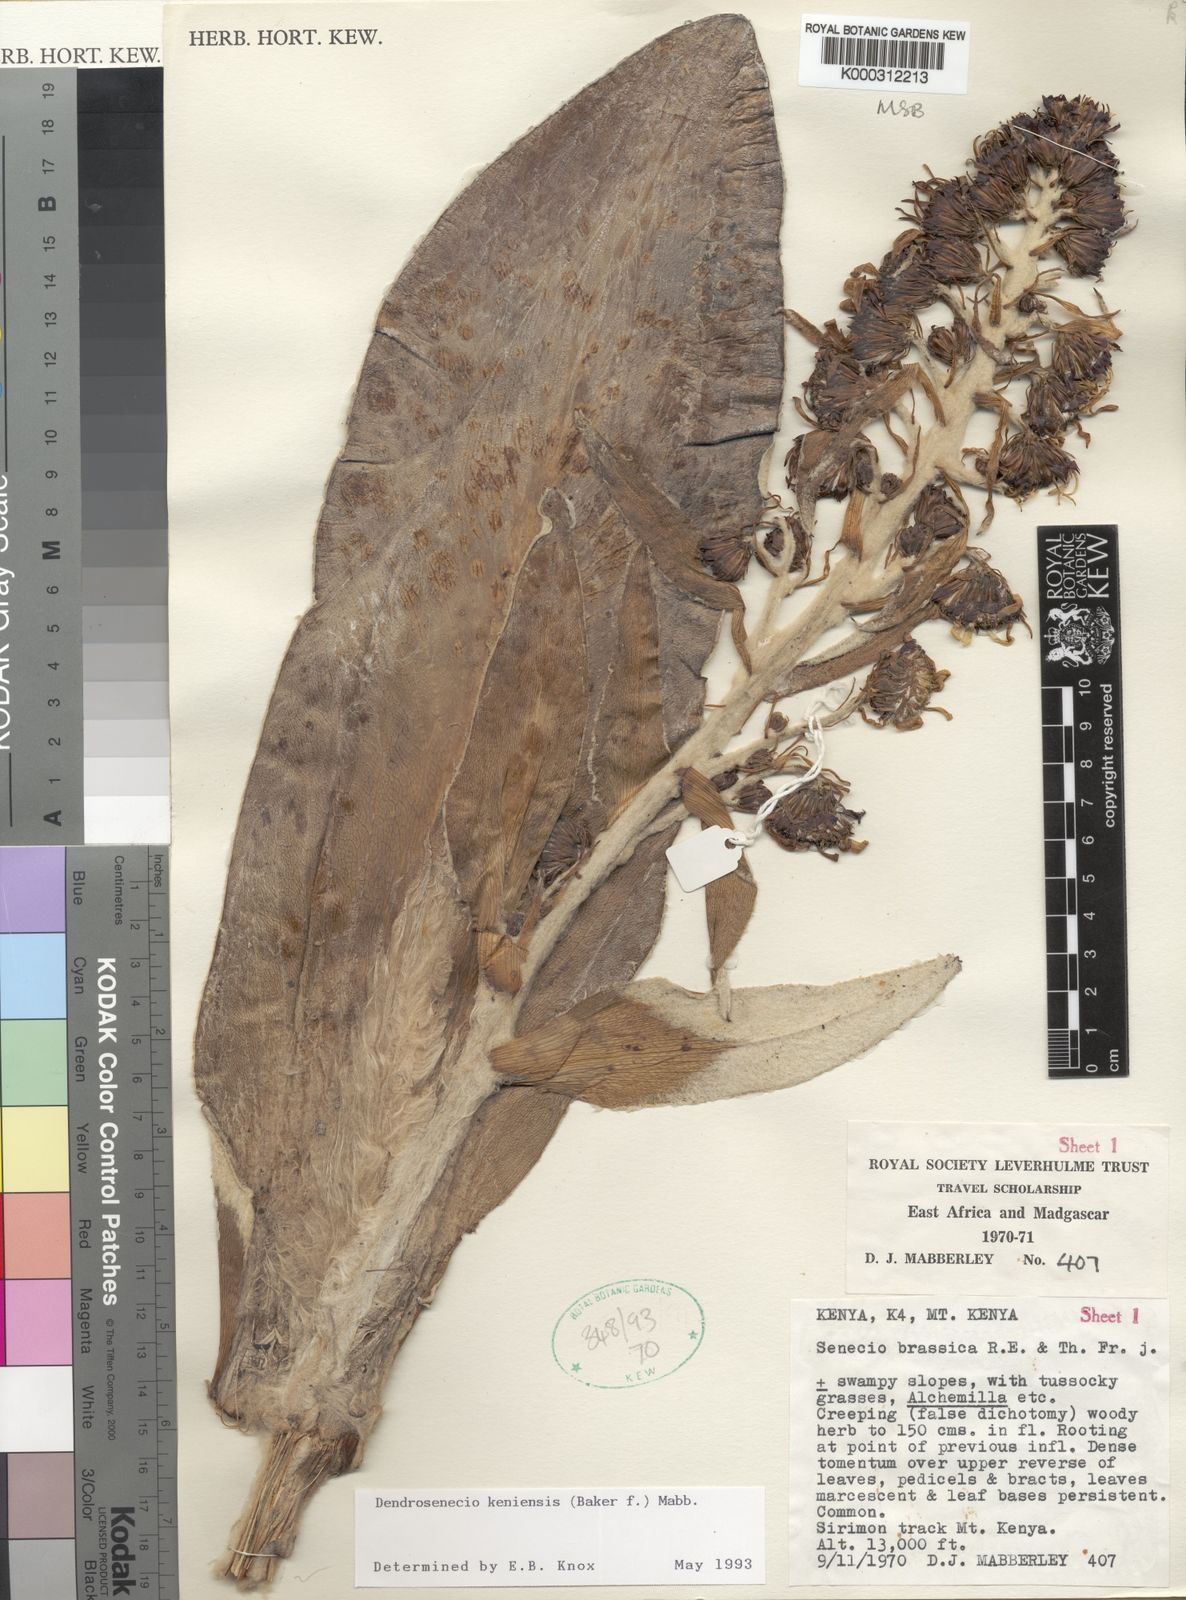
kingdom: Plantae
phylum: Tracheophyta
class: Magnoliopsida
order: Asterales
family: Asteraceae
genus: Dendrosenecio
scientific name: Dendrosenecio keniensis
